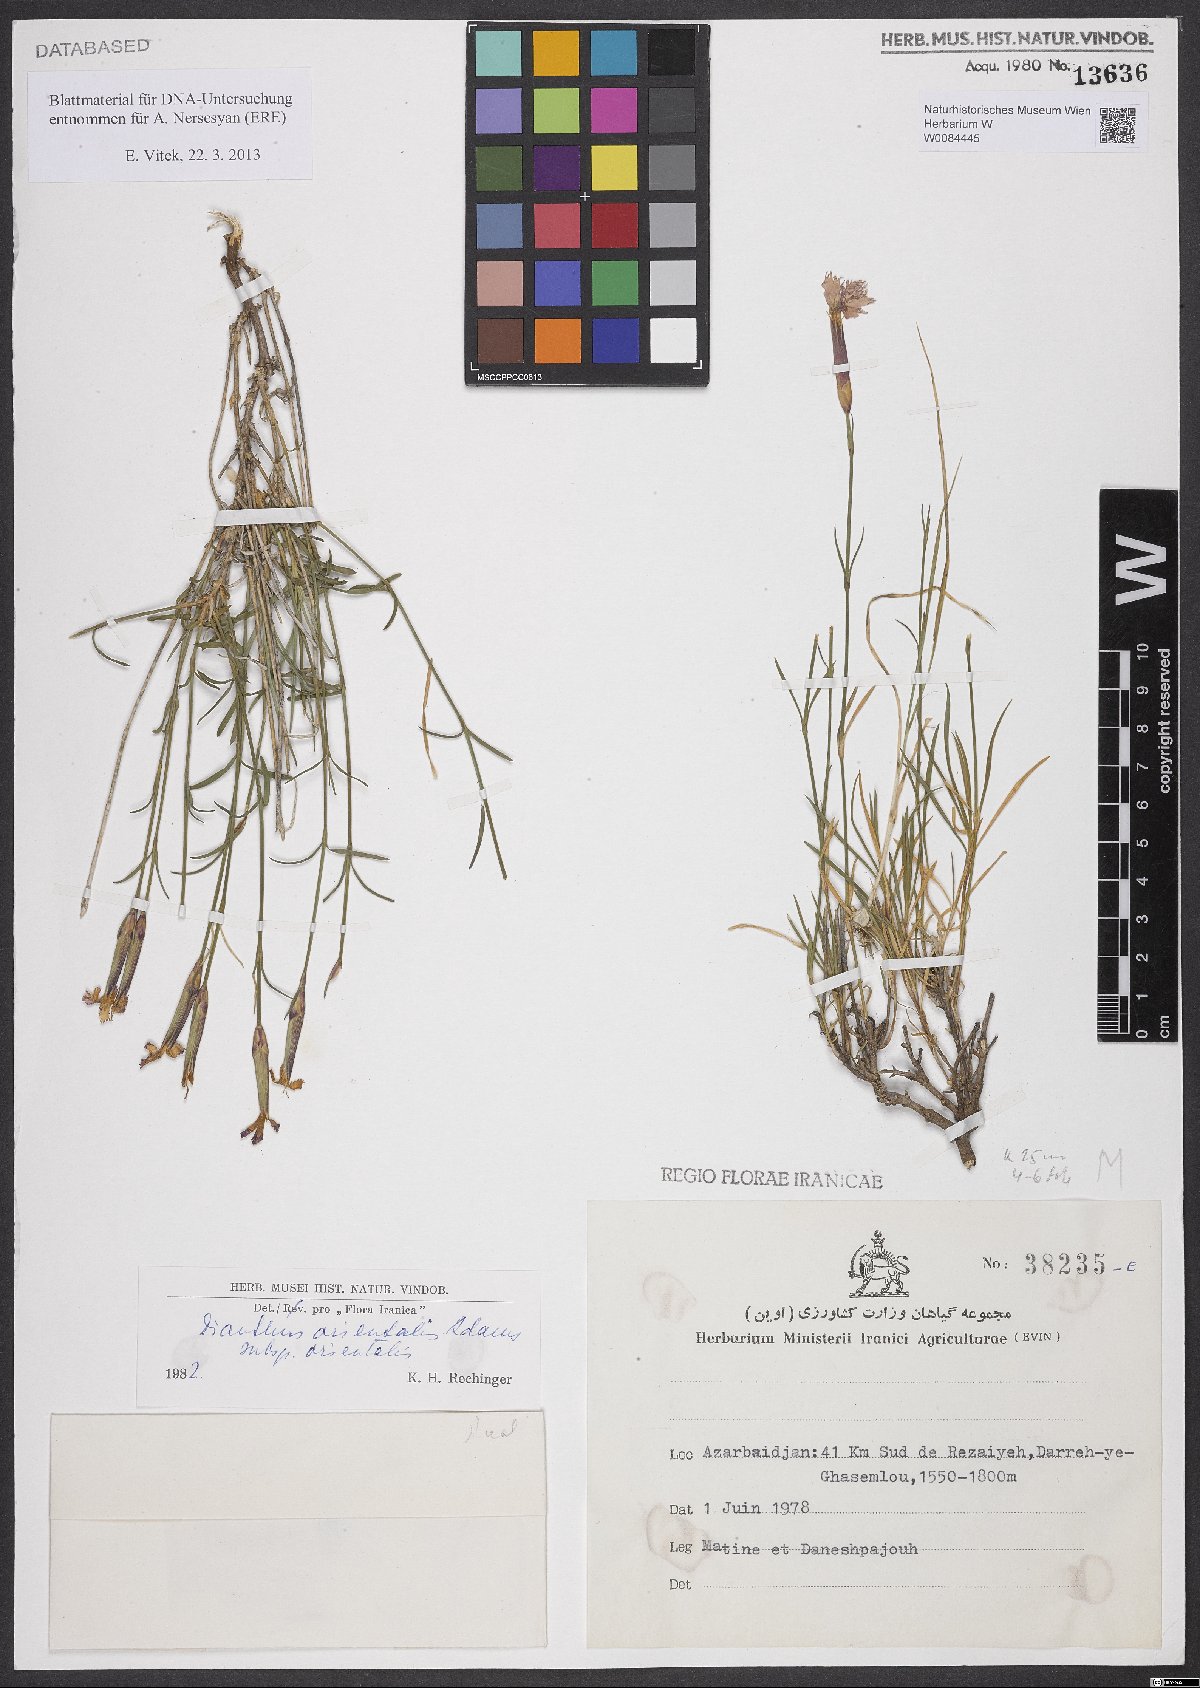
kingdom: Plantae
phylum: Tracheophyta
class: Magnoliopsida
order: Caryophyllales
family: Caryophyllaceae
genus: Dianthus
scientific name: Dianthus orientalis
